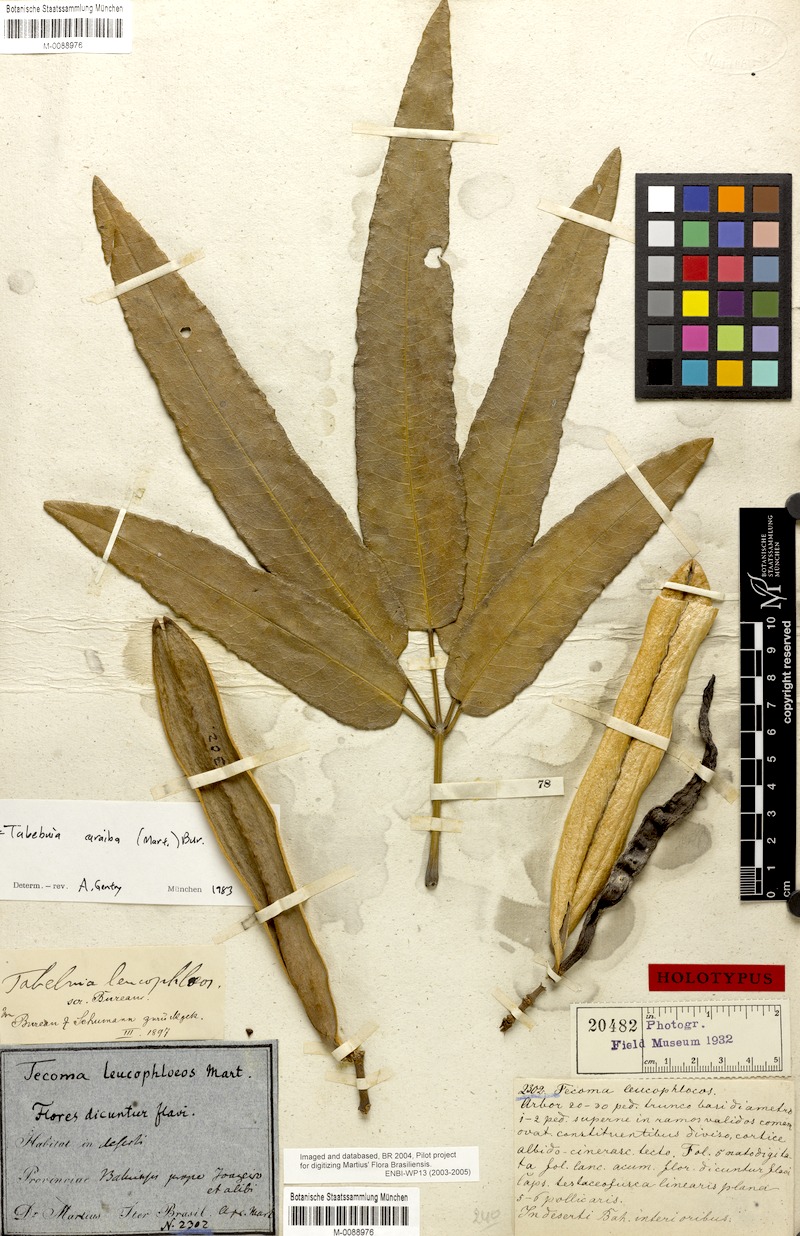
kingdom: Plantae
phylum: Tracheophyta
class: Magnoliopsida
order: Lamiales
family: Bignoniaceae
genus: Tabebuia
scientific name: Tabebuia aurea
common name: Caribbean trumpet-tree
